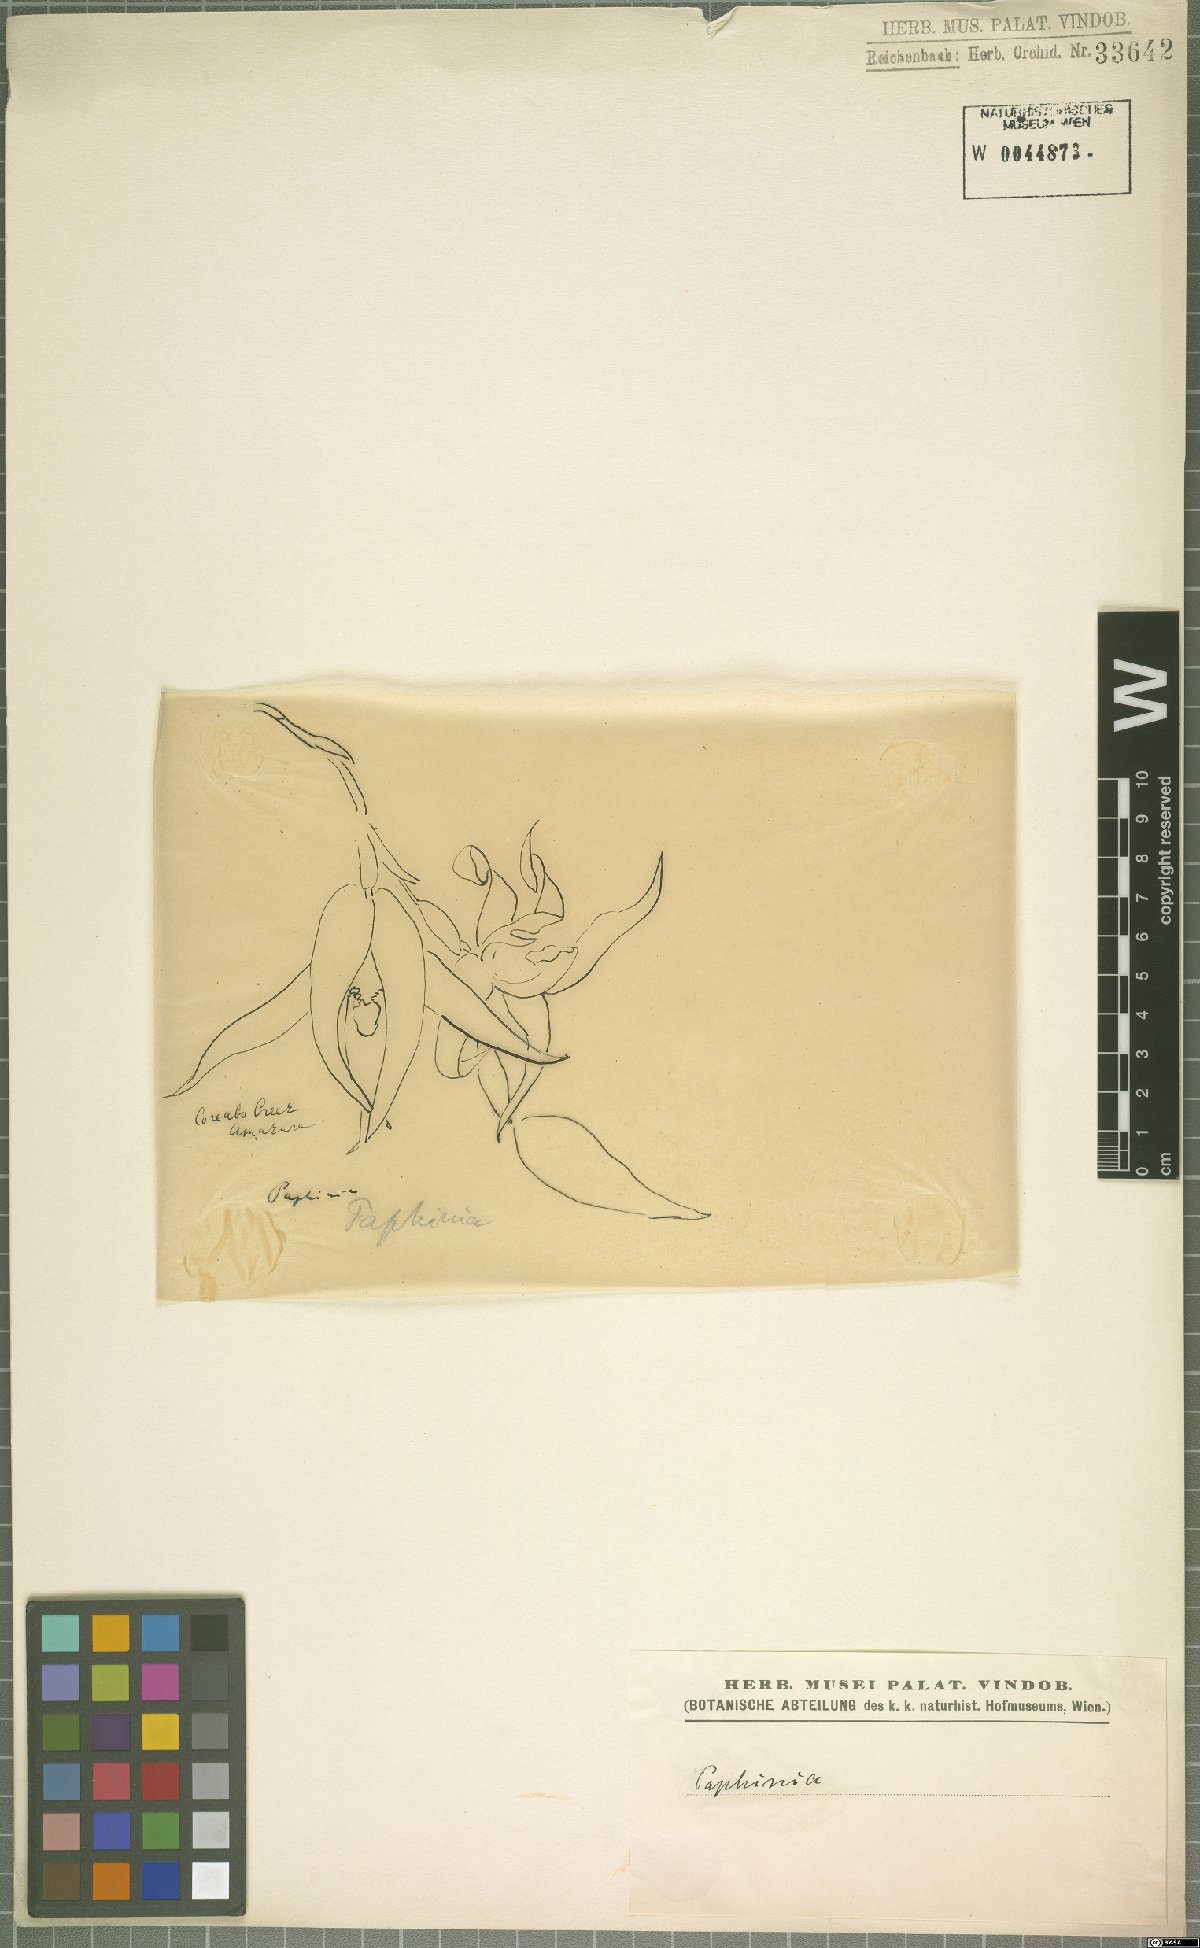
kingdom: Plantae
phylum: Tracheophyta
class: Liliopsida
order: Asparagales
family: Orchidaceae
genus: Paphinia
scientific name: Paphinia
